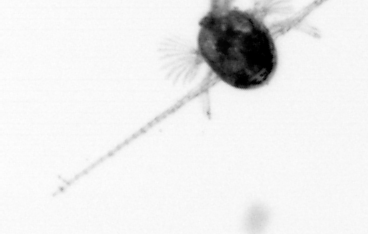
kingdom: Animalia
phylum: Arthropoda
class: Copepoda
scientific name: Copepoda
